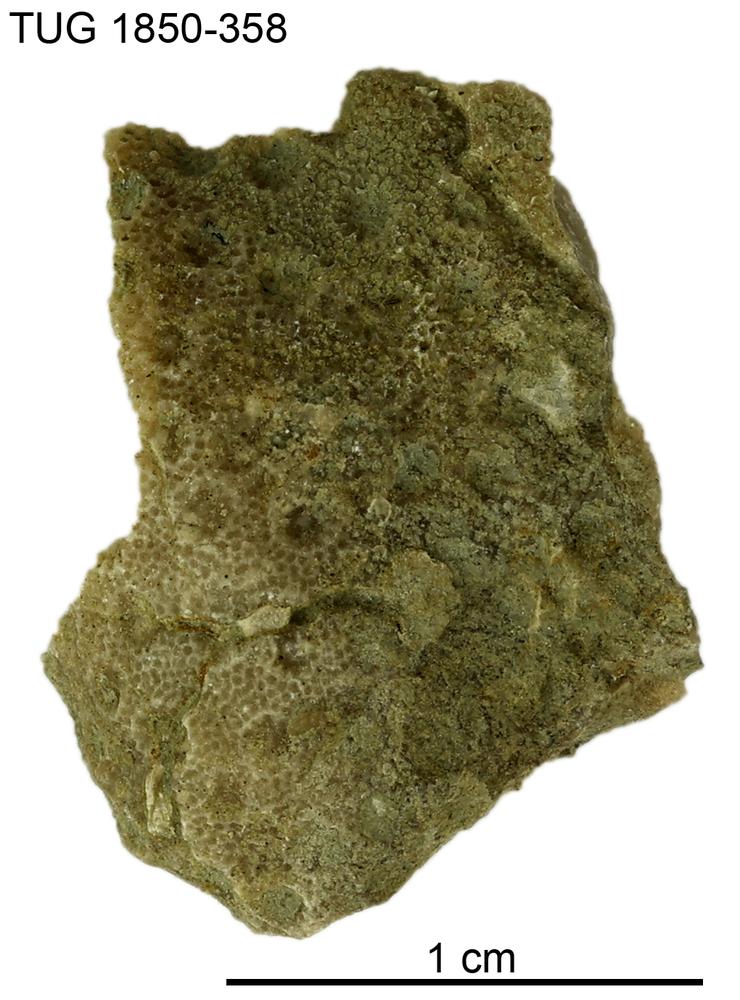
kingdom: Animalia
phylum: Cnidaria
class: Anthozoa
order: Heliolitina
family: Heliolitidae
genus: Heliolites
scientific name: Heliolites
